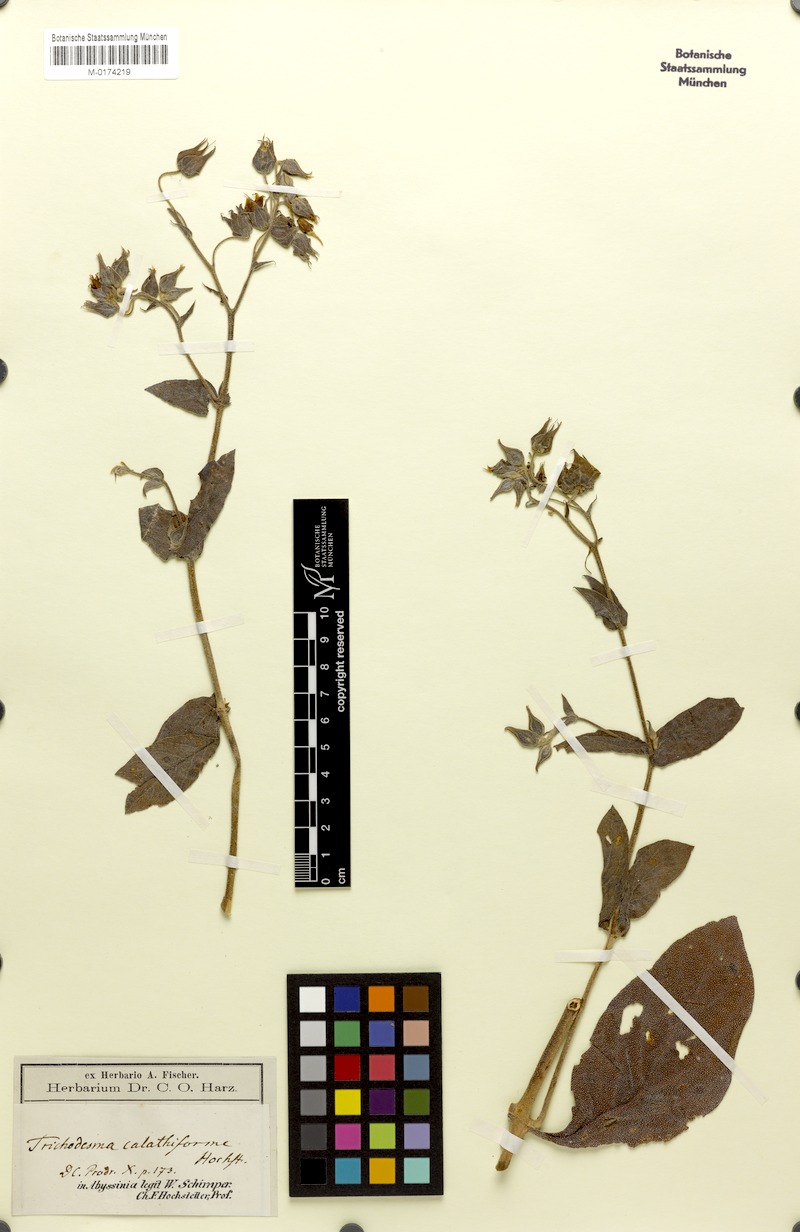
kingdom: Plantae
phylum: Tracheophyta
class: Magnoliopsida
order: Boraginales
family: Boraginaceae
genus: Trichodesma
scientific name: Trichodesma trichodesmoides
